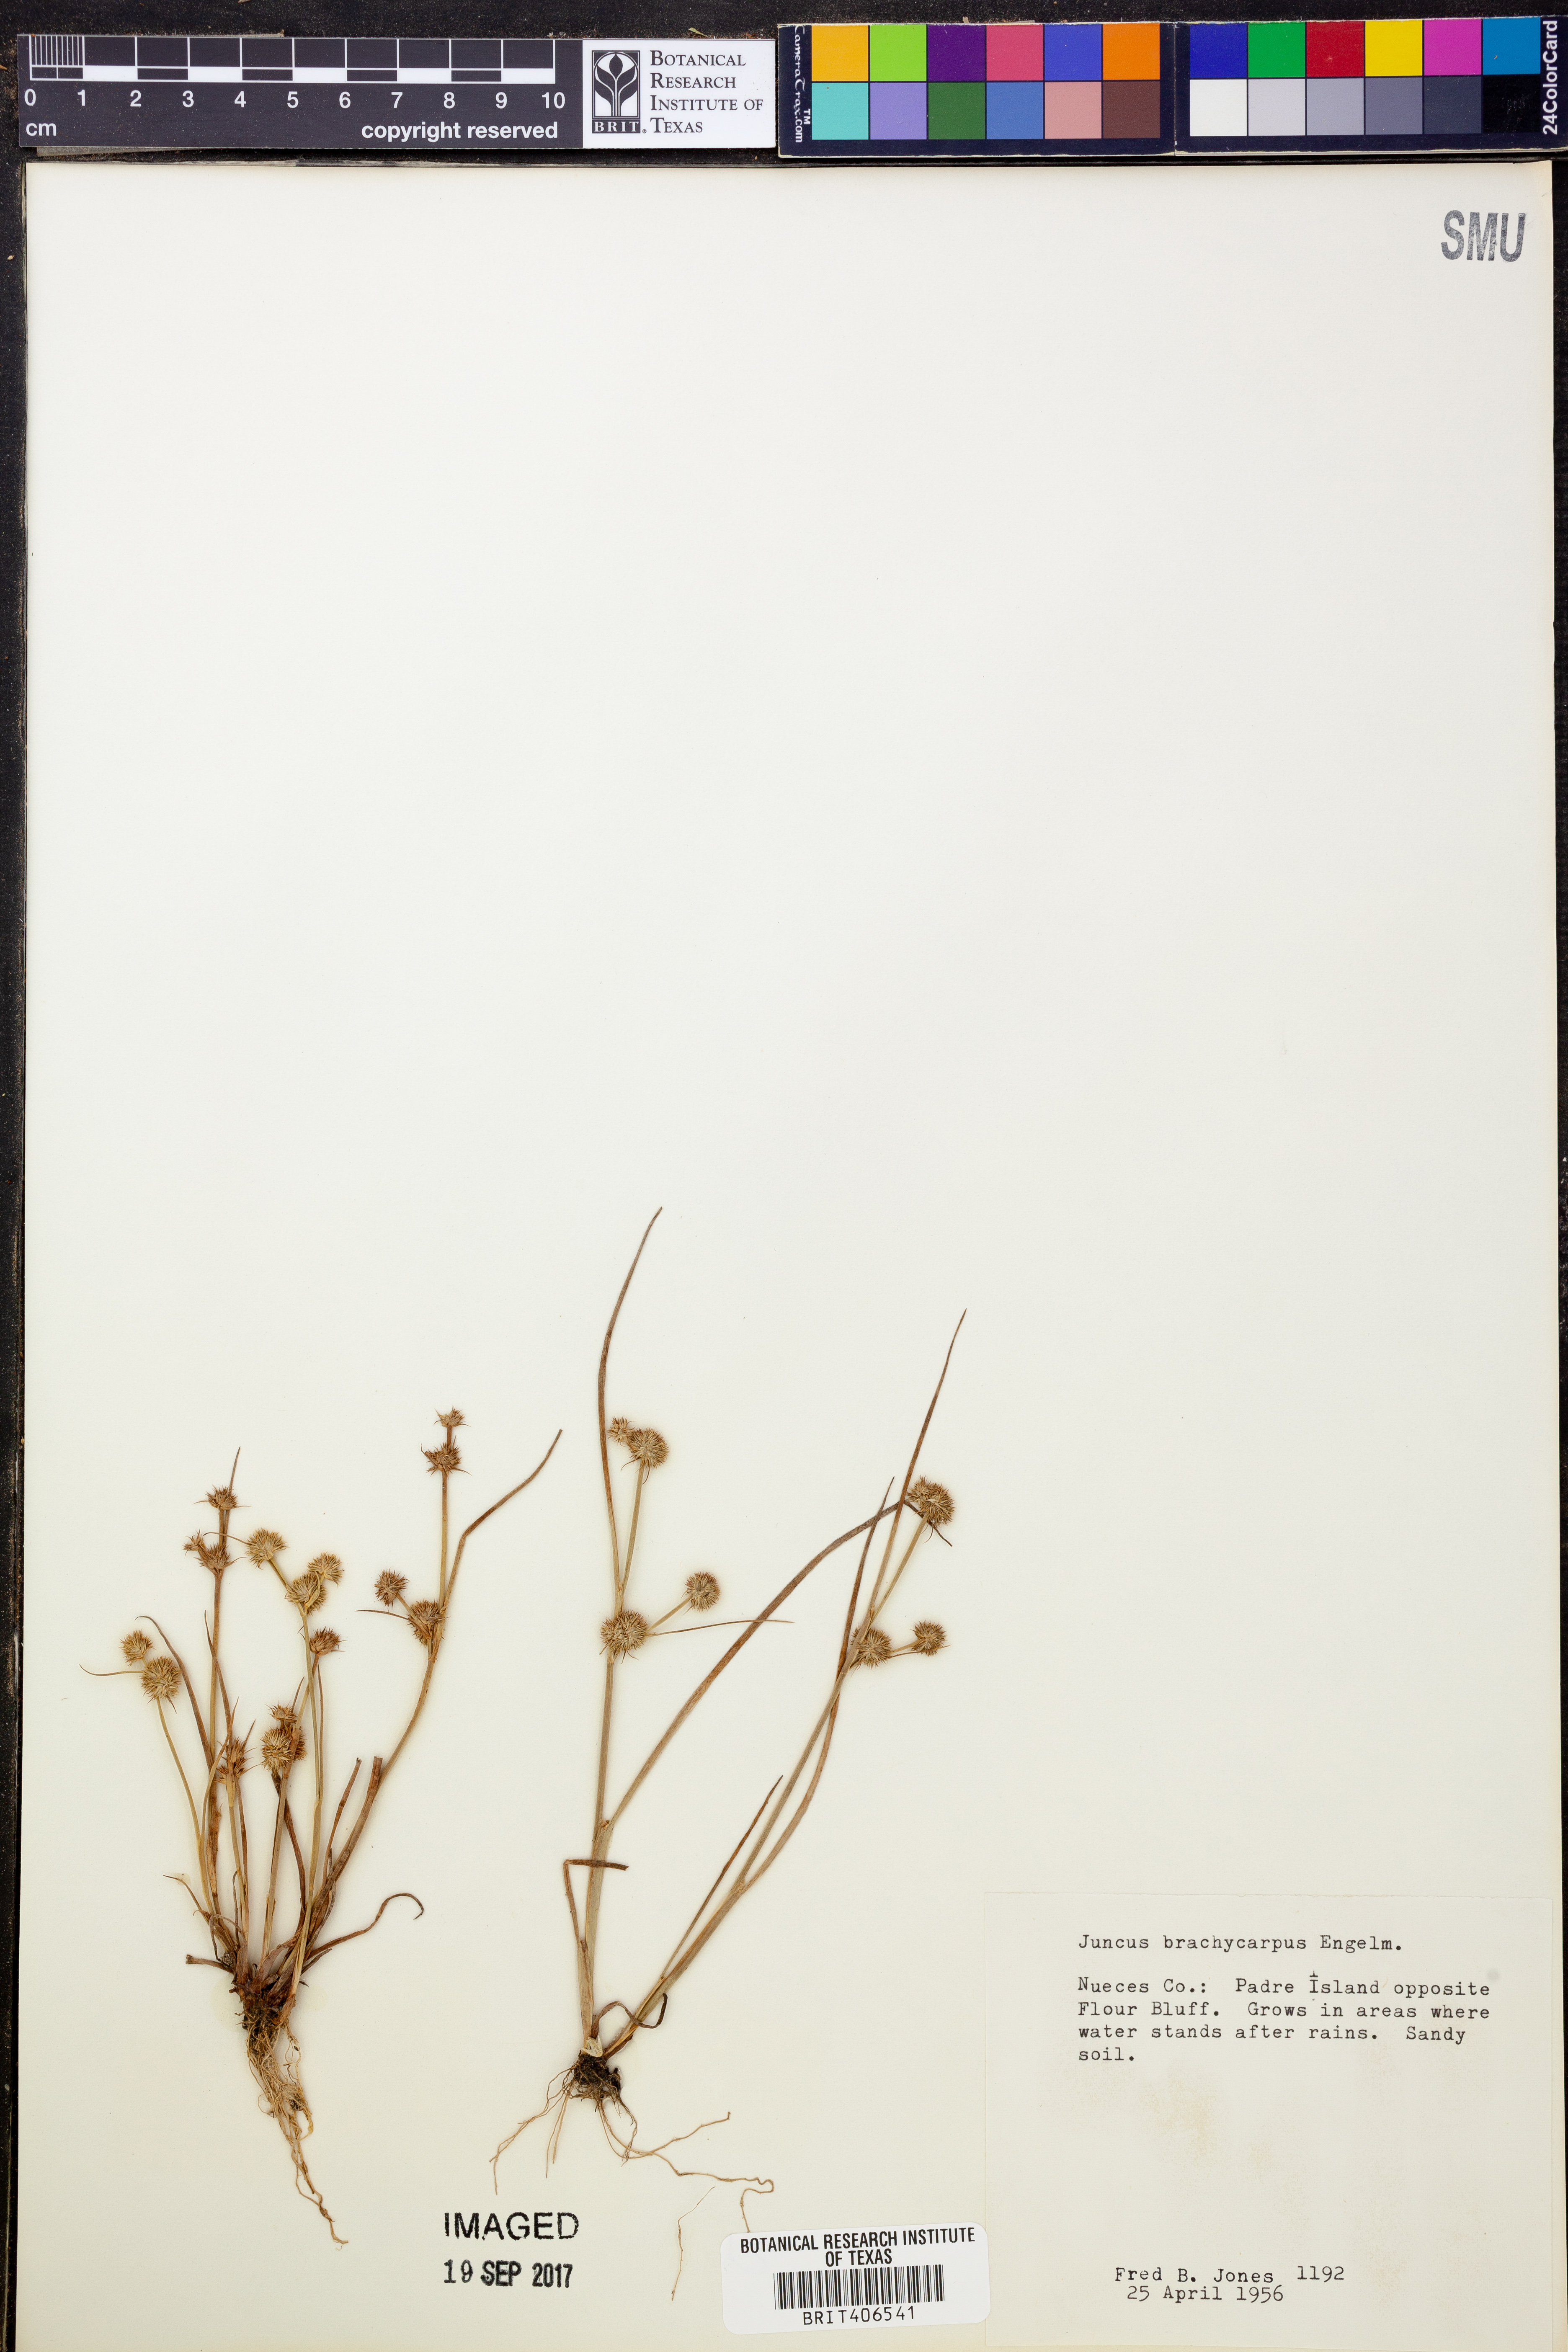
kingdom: Plantae
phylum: Tracheophyta
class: Liliopsida
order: Poales
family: Juncaceae
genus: Juncus
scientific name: Juncus brachycarpus
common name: Shore rush
